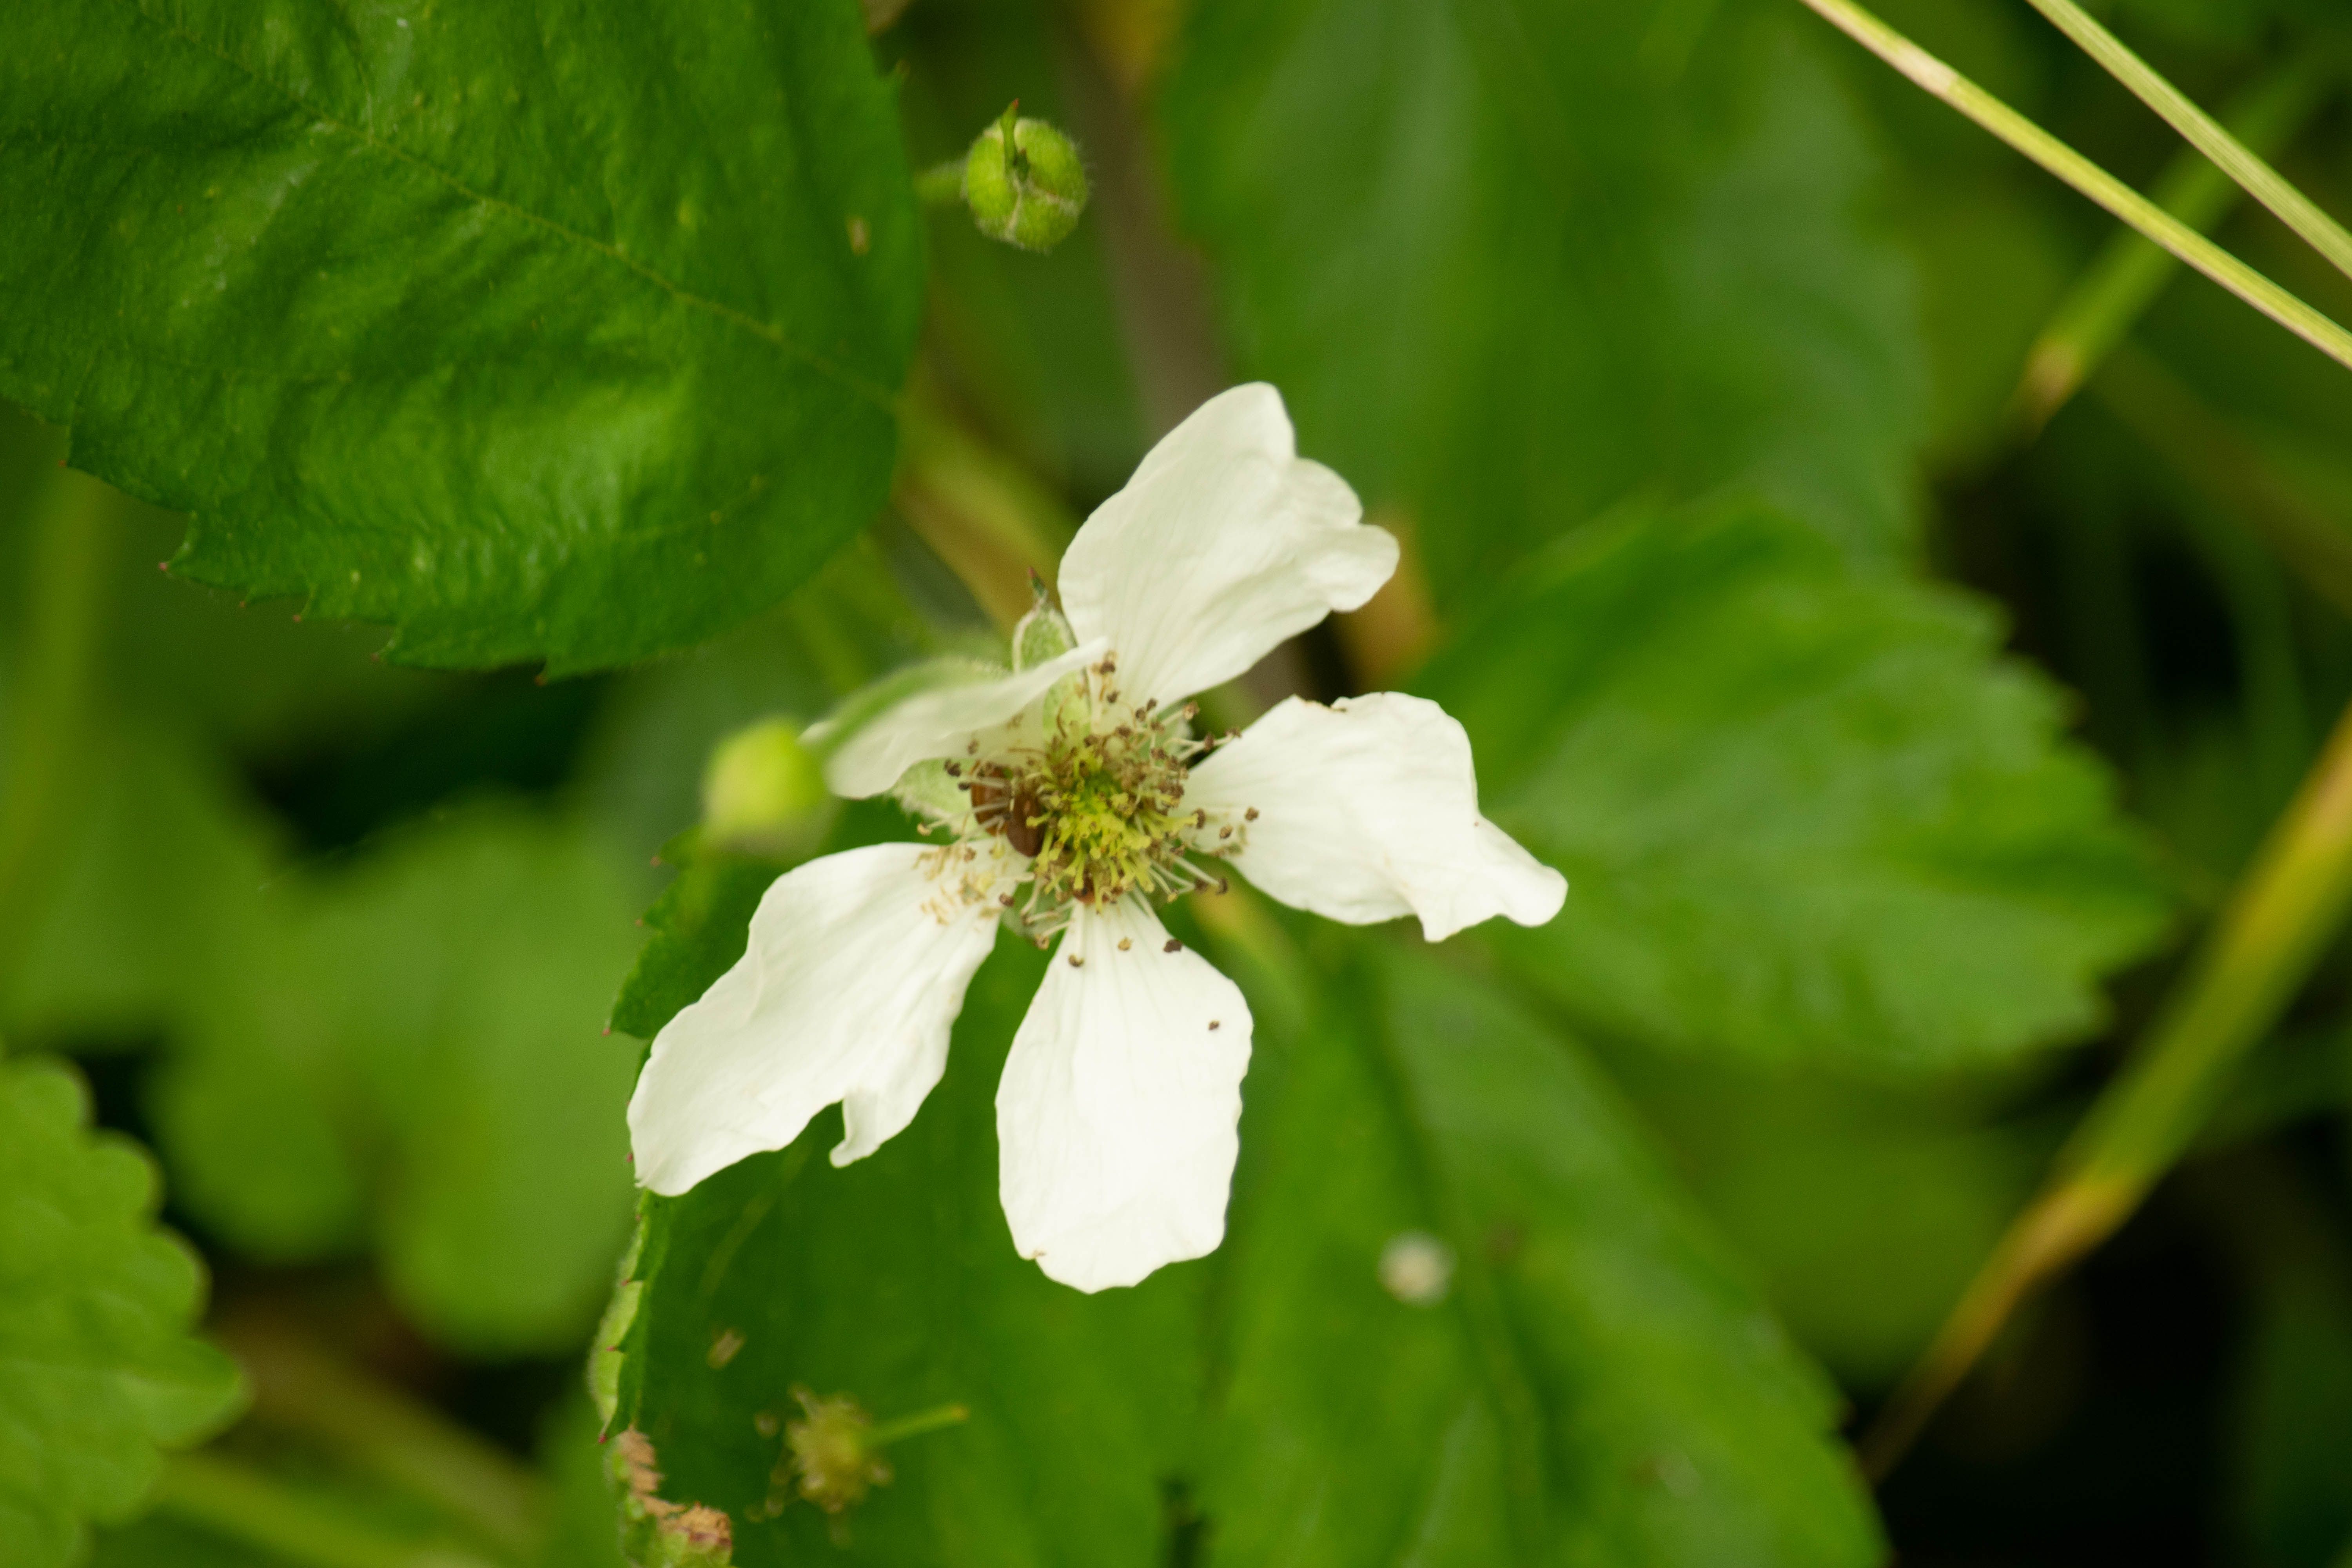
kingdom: Plantae
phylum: Tracheophyta
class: Magnoliopsida
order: Rosales
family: Rosaceae
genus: Rubus
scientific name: Rubus flagellaris
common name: American dewberry
